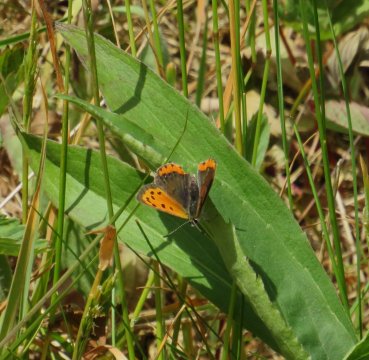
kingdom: Animalia
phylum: Arthropoda
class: Insecta
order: Lepidoptera
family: Lycaenidae
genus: Lycaena
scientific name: Lycaena phlaeas
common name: American Copper
